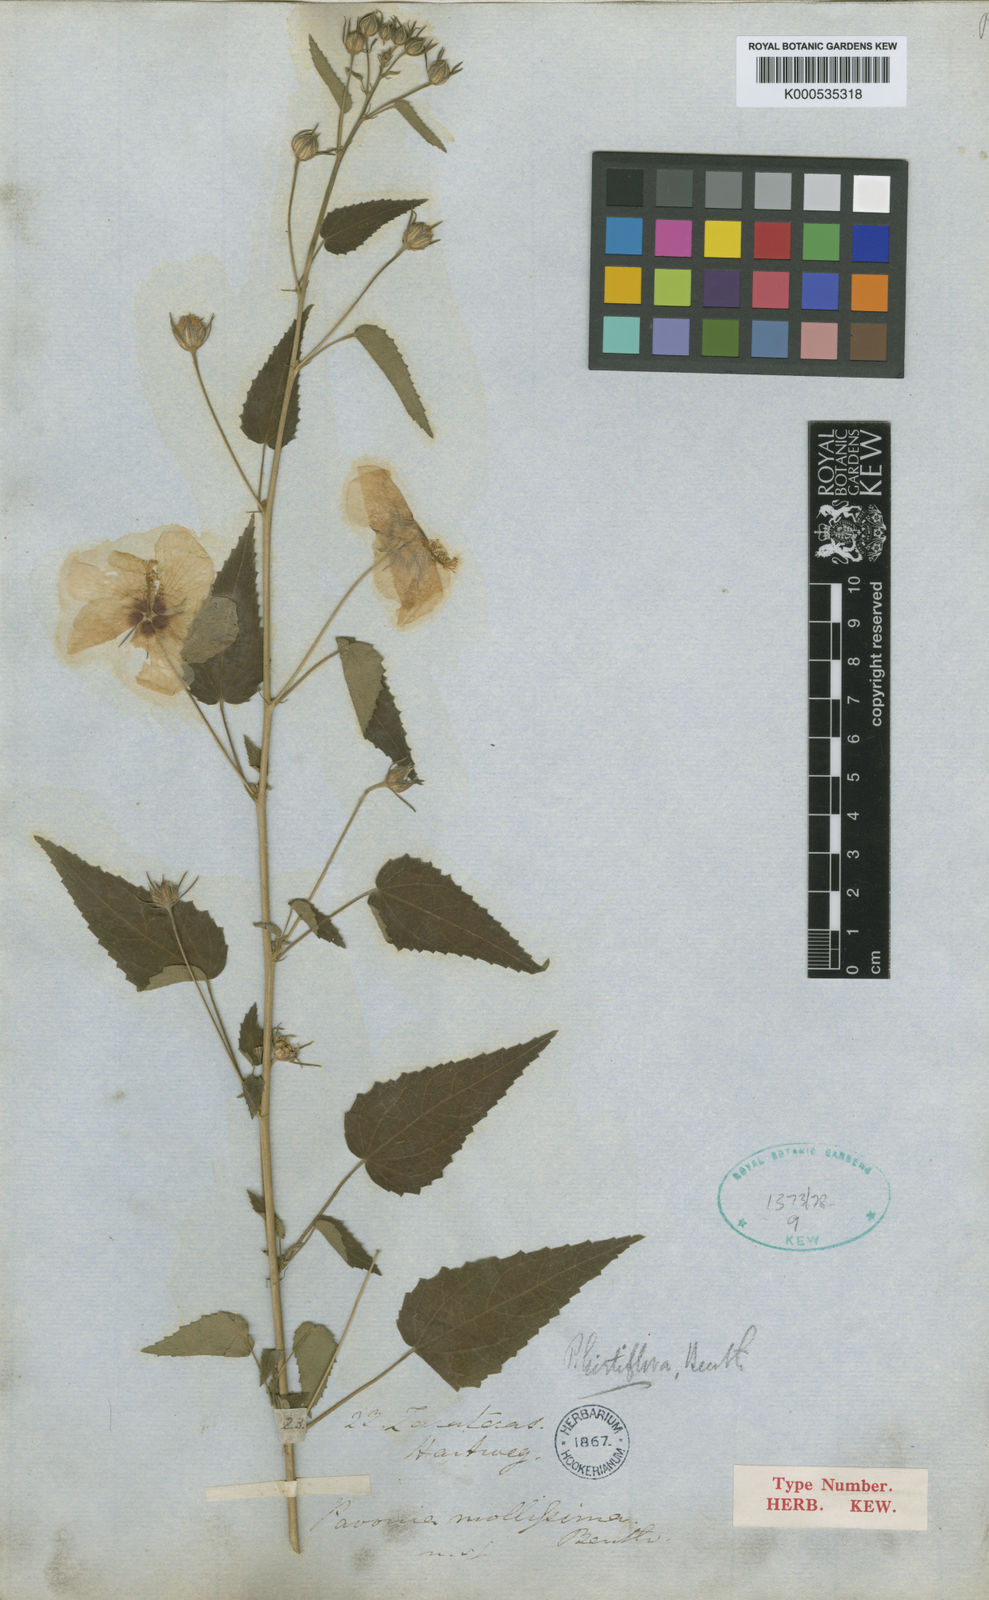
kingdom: Plantae
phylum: Tracheophyta
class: Magnoliopsida
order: Malvales
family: Malvaceae
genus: Pavonia
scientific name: Pavonia hirtiflora
